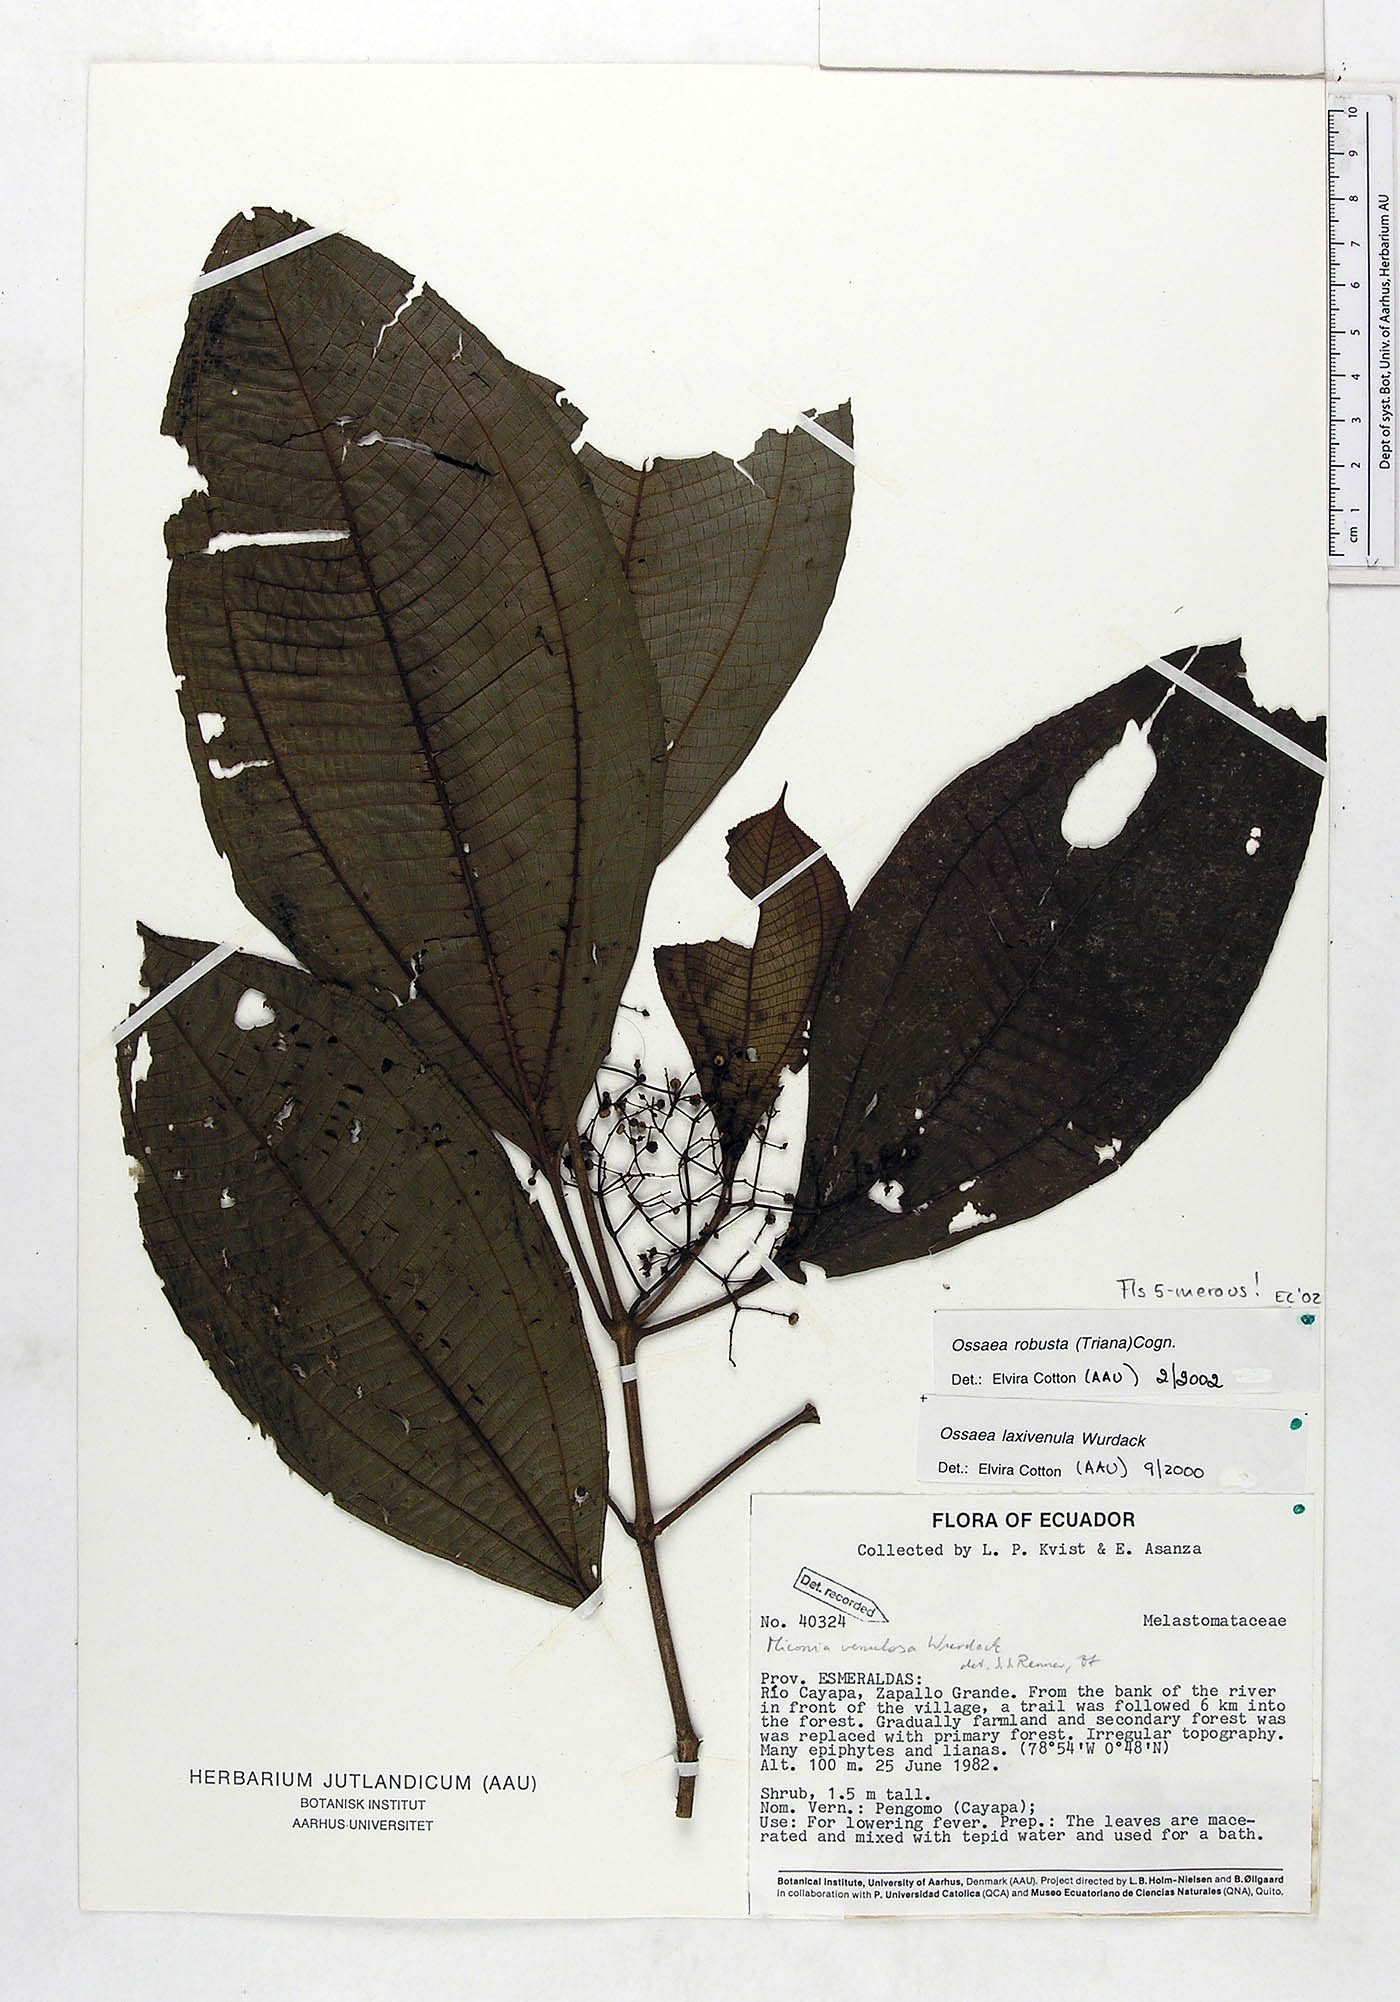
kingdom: Plantae
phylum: Tracheophyta
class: Magnoliopsida
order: Myrtales
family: Melastomataceae
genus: Miconia
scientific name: Miconia variabilis
